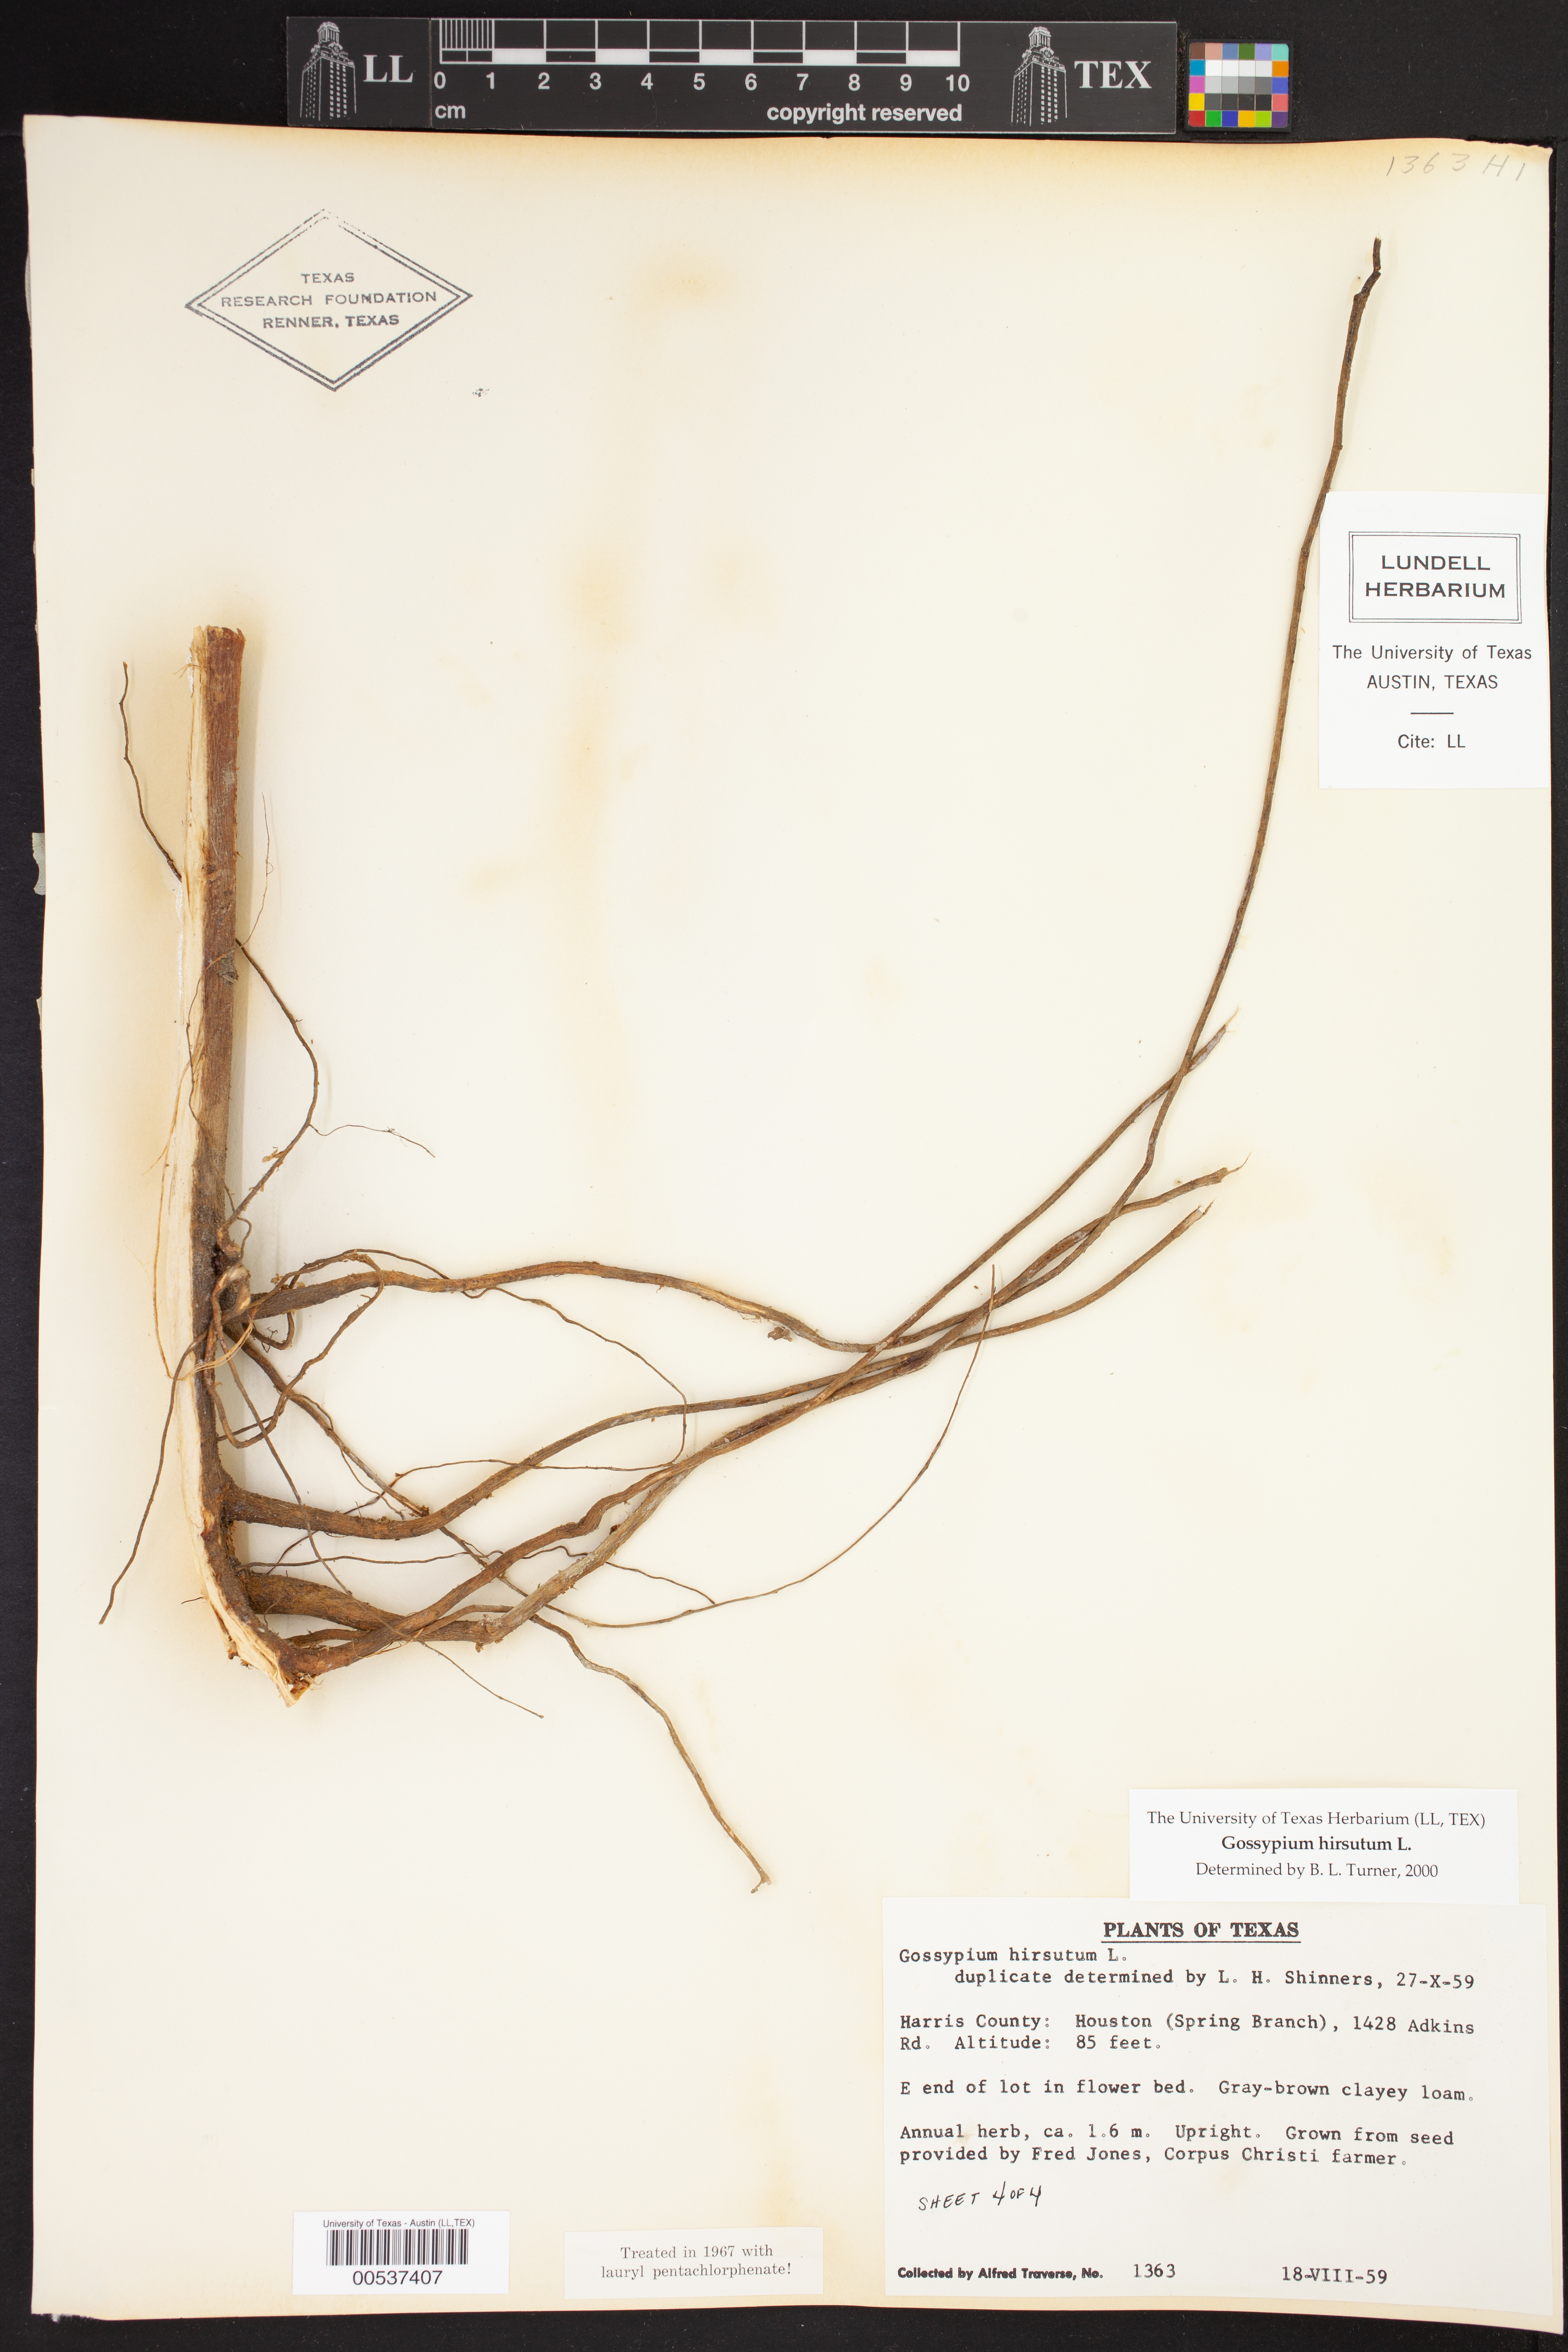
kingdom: Plantae
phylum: Tracheophyta
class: Magnoliopsida
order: Malvales
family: Malvaceae
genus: Gossypium
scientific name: Gossypium hirsutum
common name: Cotton
